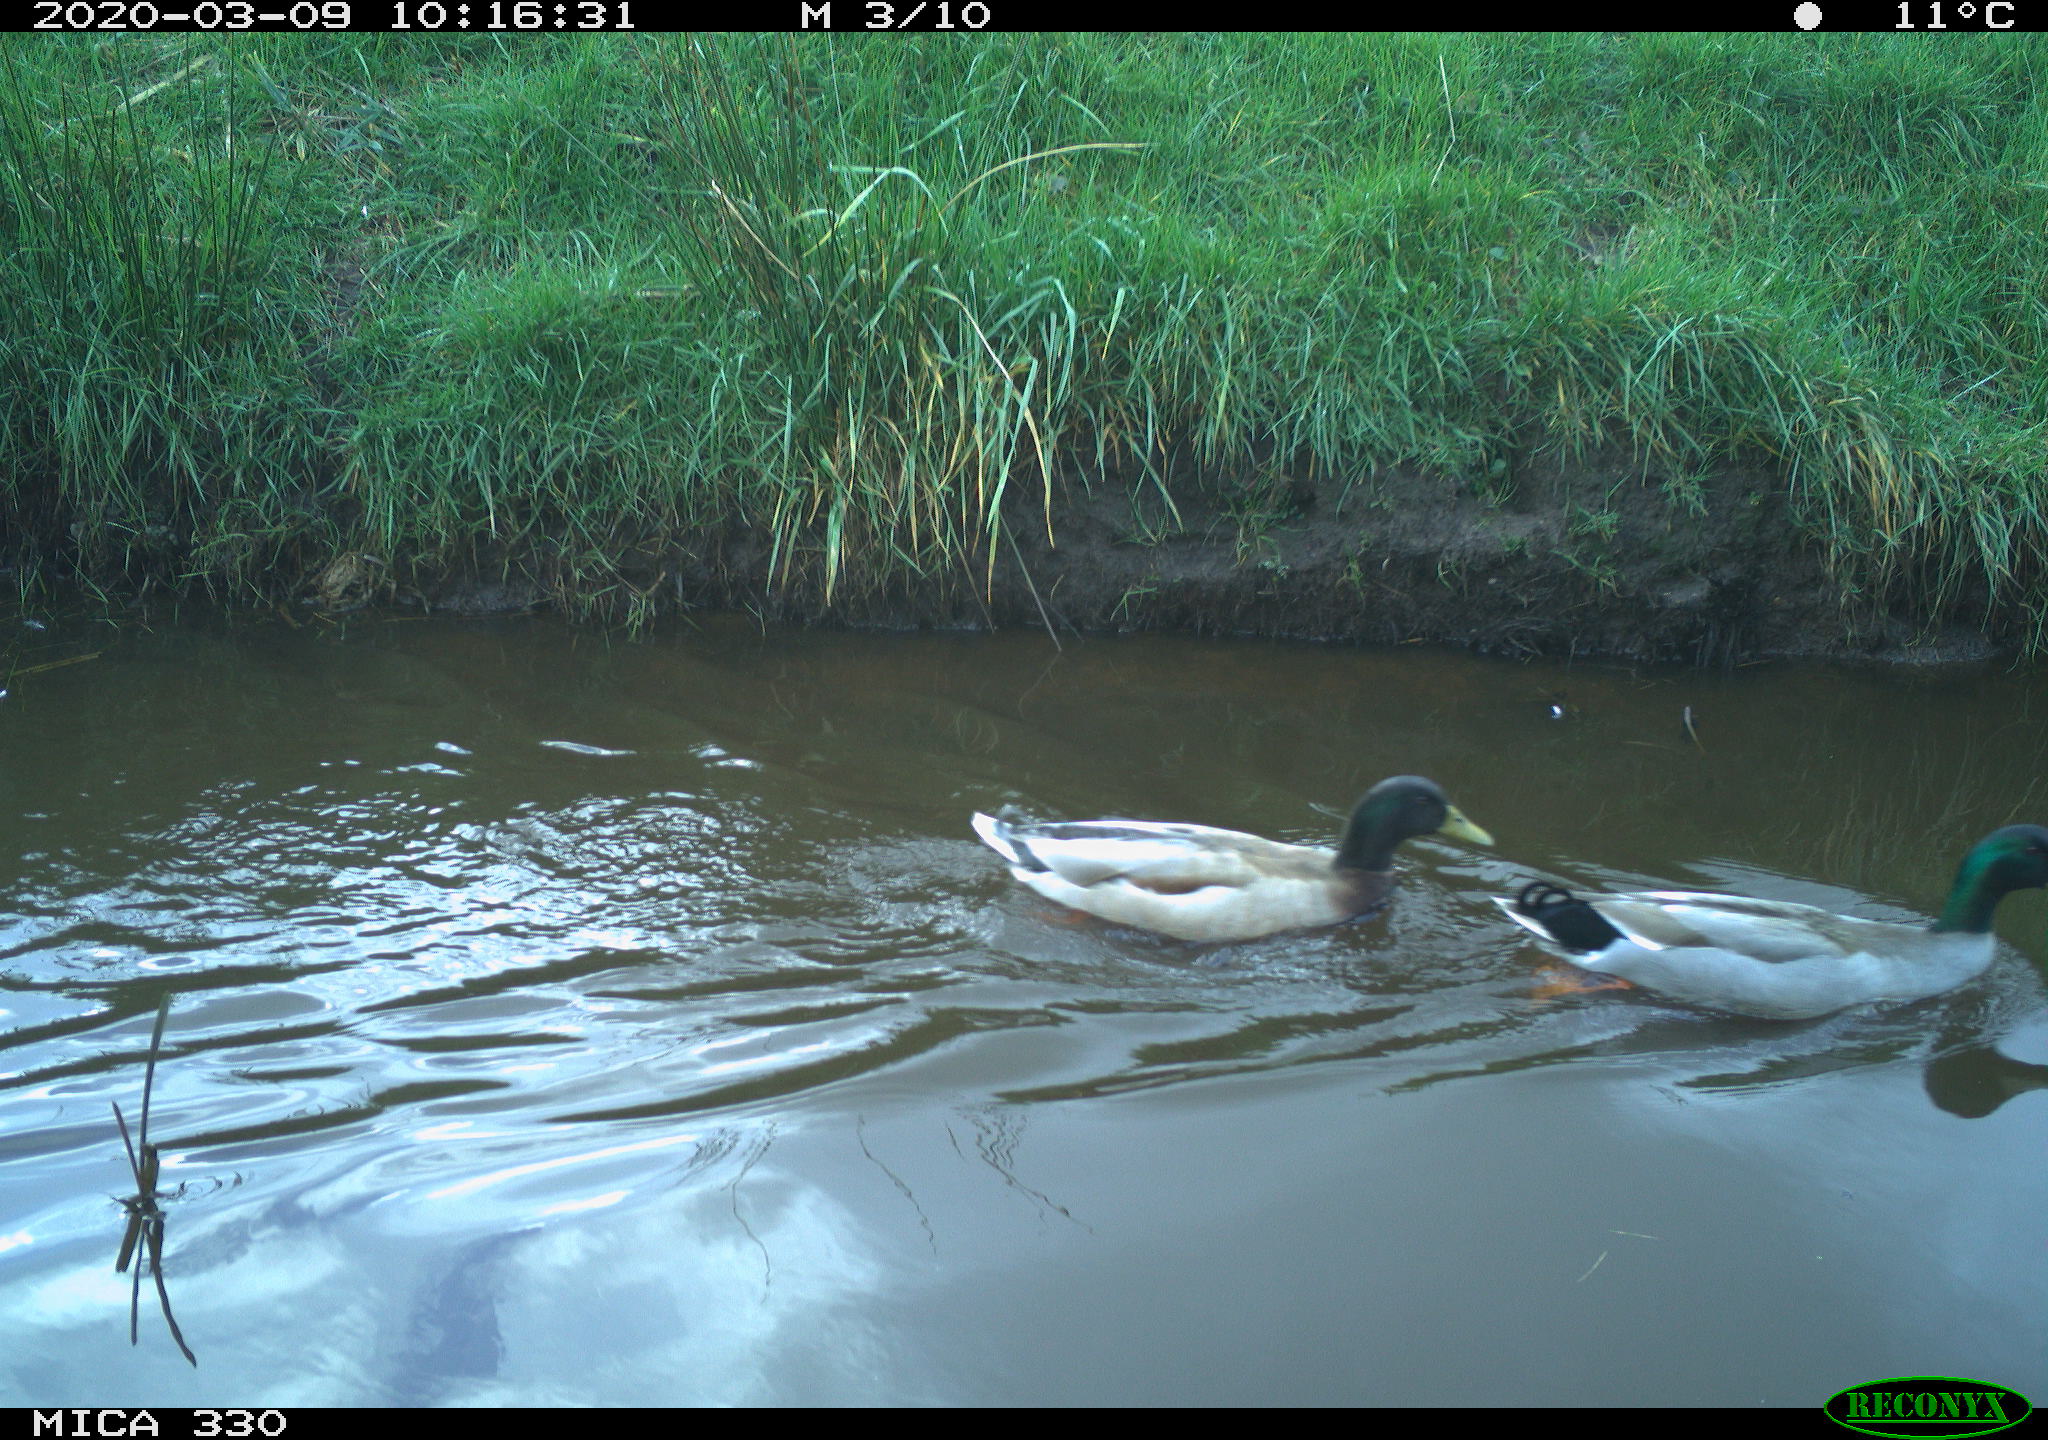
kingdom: Animalia
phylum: Chordata
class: Aves
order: Anseriformes
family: Anatidae
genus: Anas
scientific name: Anas platyrhynchos
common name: Mallard
